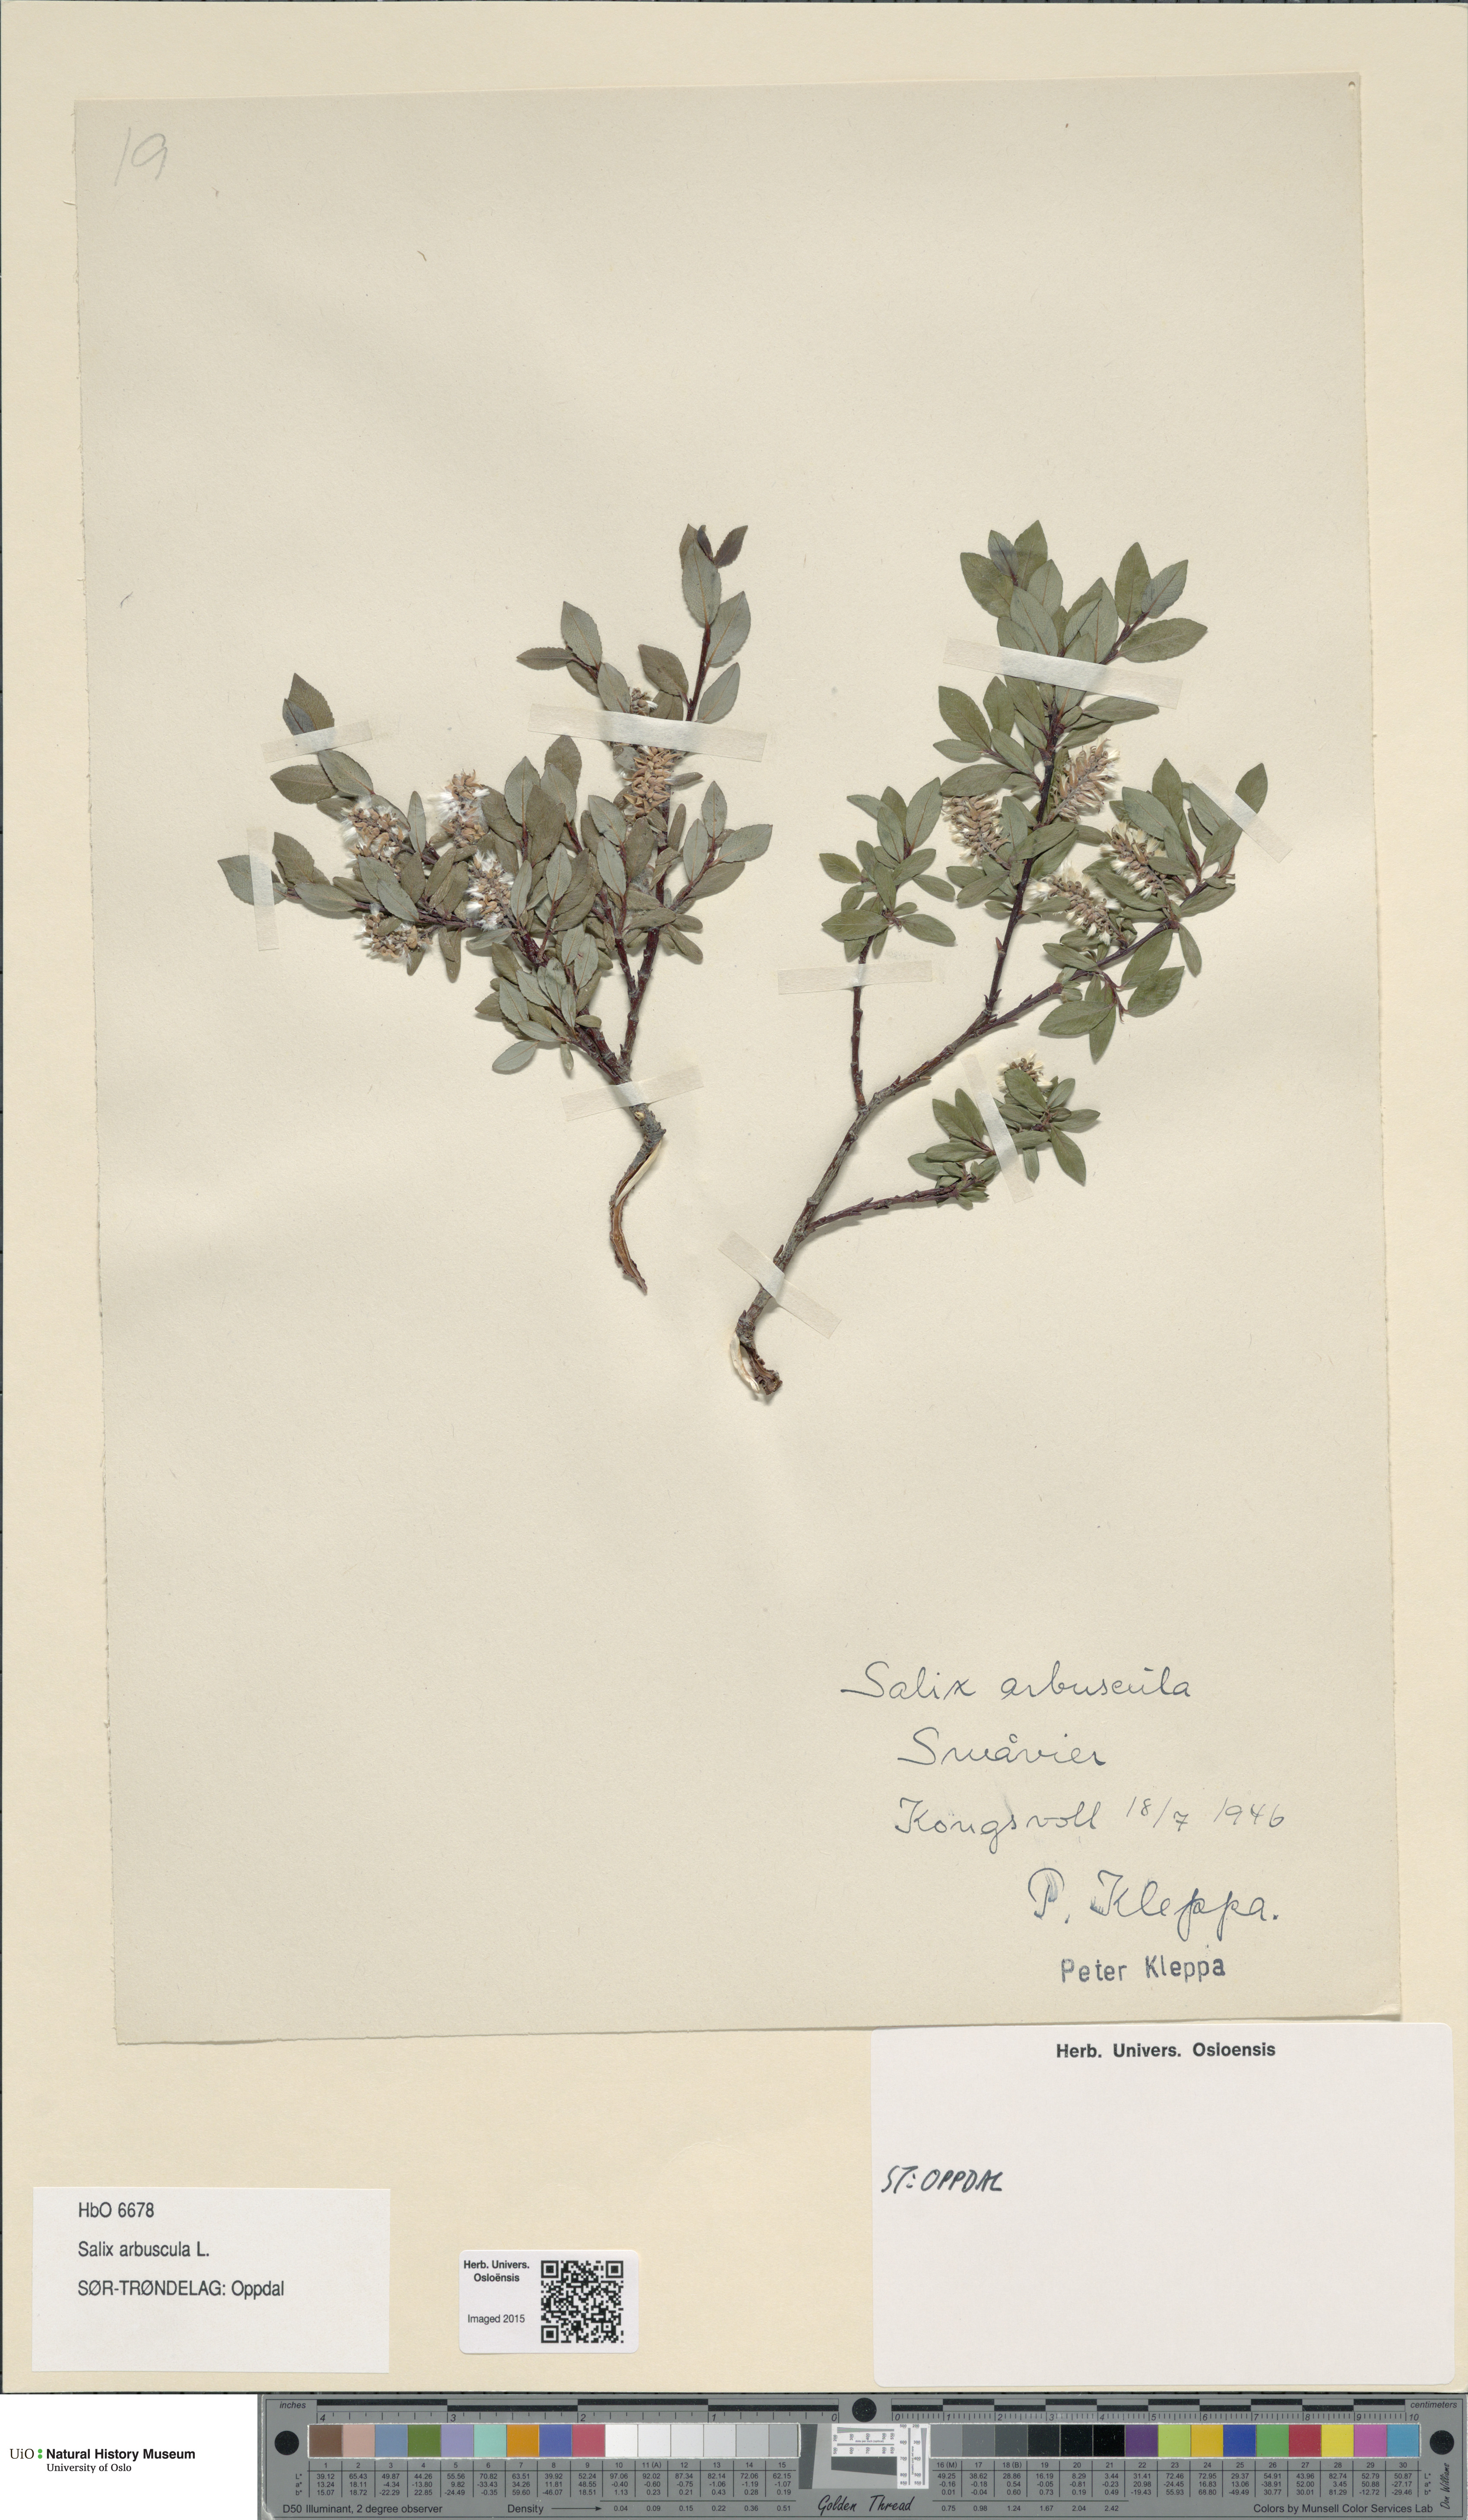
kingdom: Plantae
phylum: Tracheophyta
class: Magnoliopsida
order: Malpighiales
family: Salicaceae
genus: Salix
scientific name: Salix arbuscula
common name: Mountain willow
